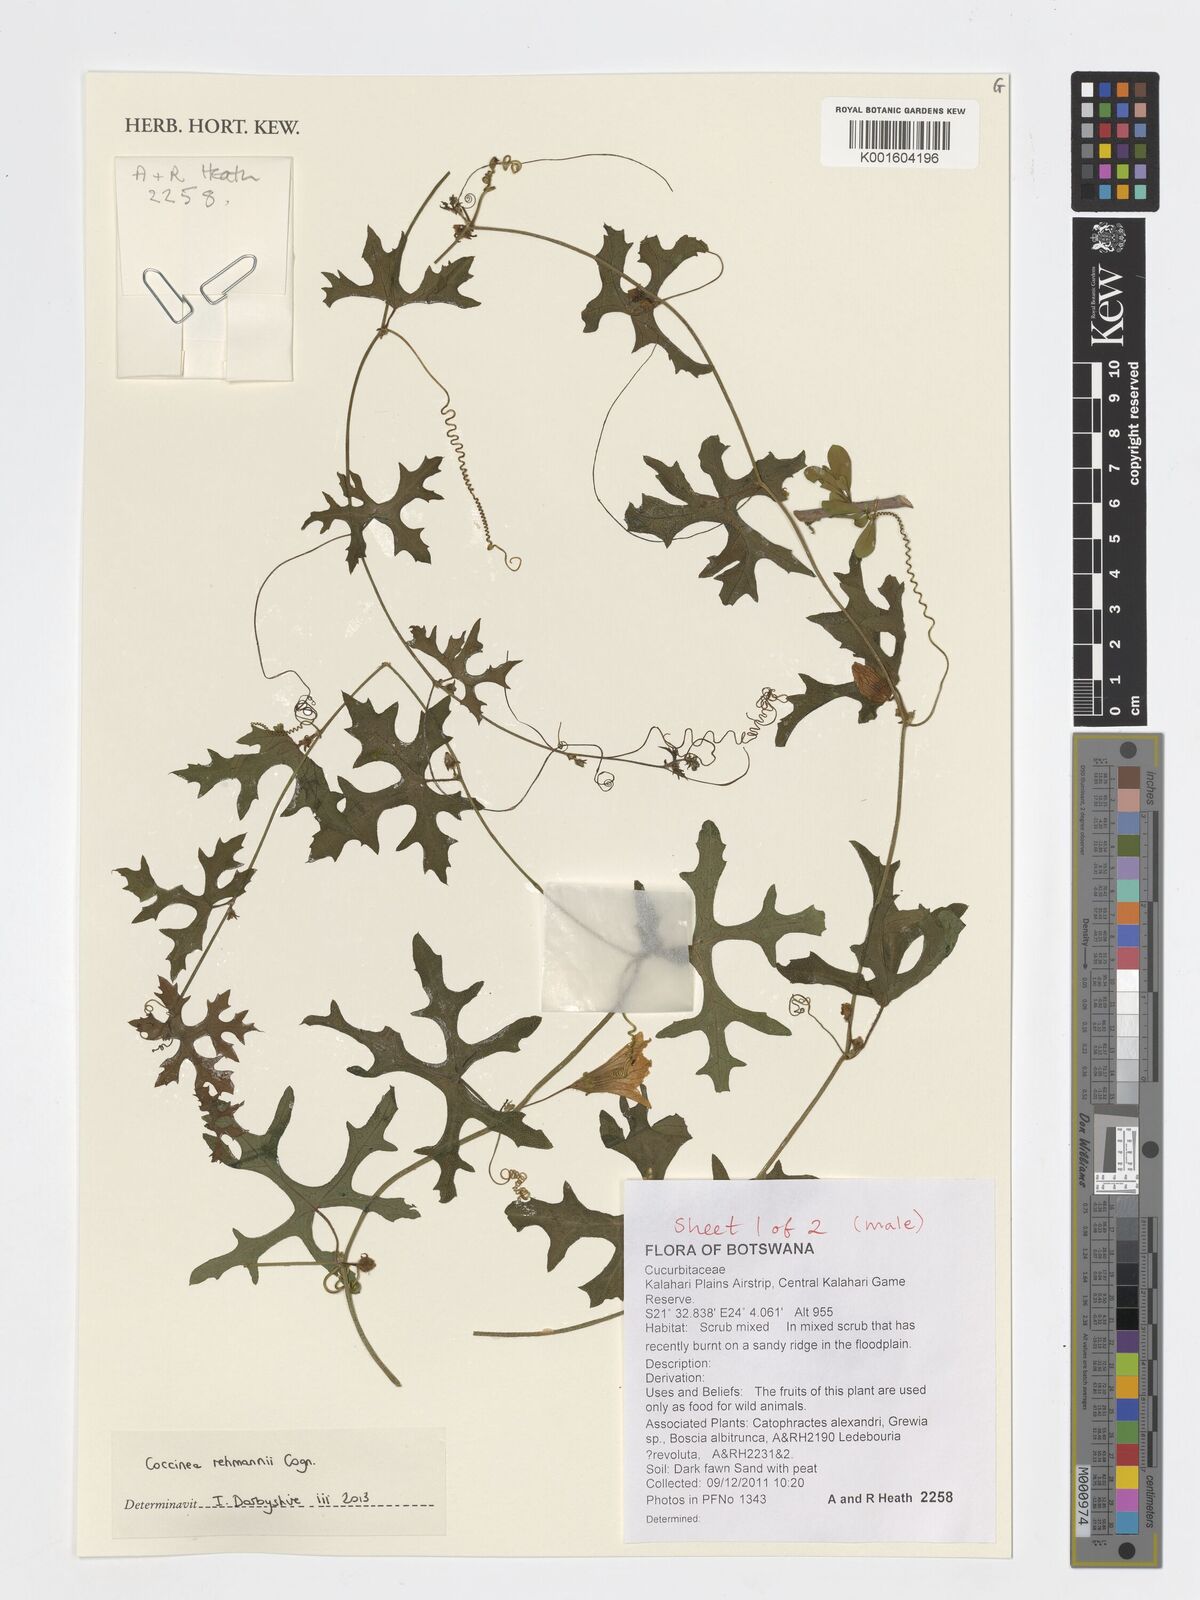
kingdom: Plantae
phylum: Tracheophyta
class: Magnoliopsida
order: Cucurbitales
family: Cucurbitaceae
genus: Coccinia
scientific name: Coccinia rehmannii
